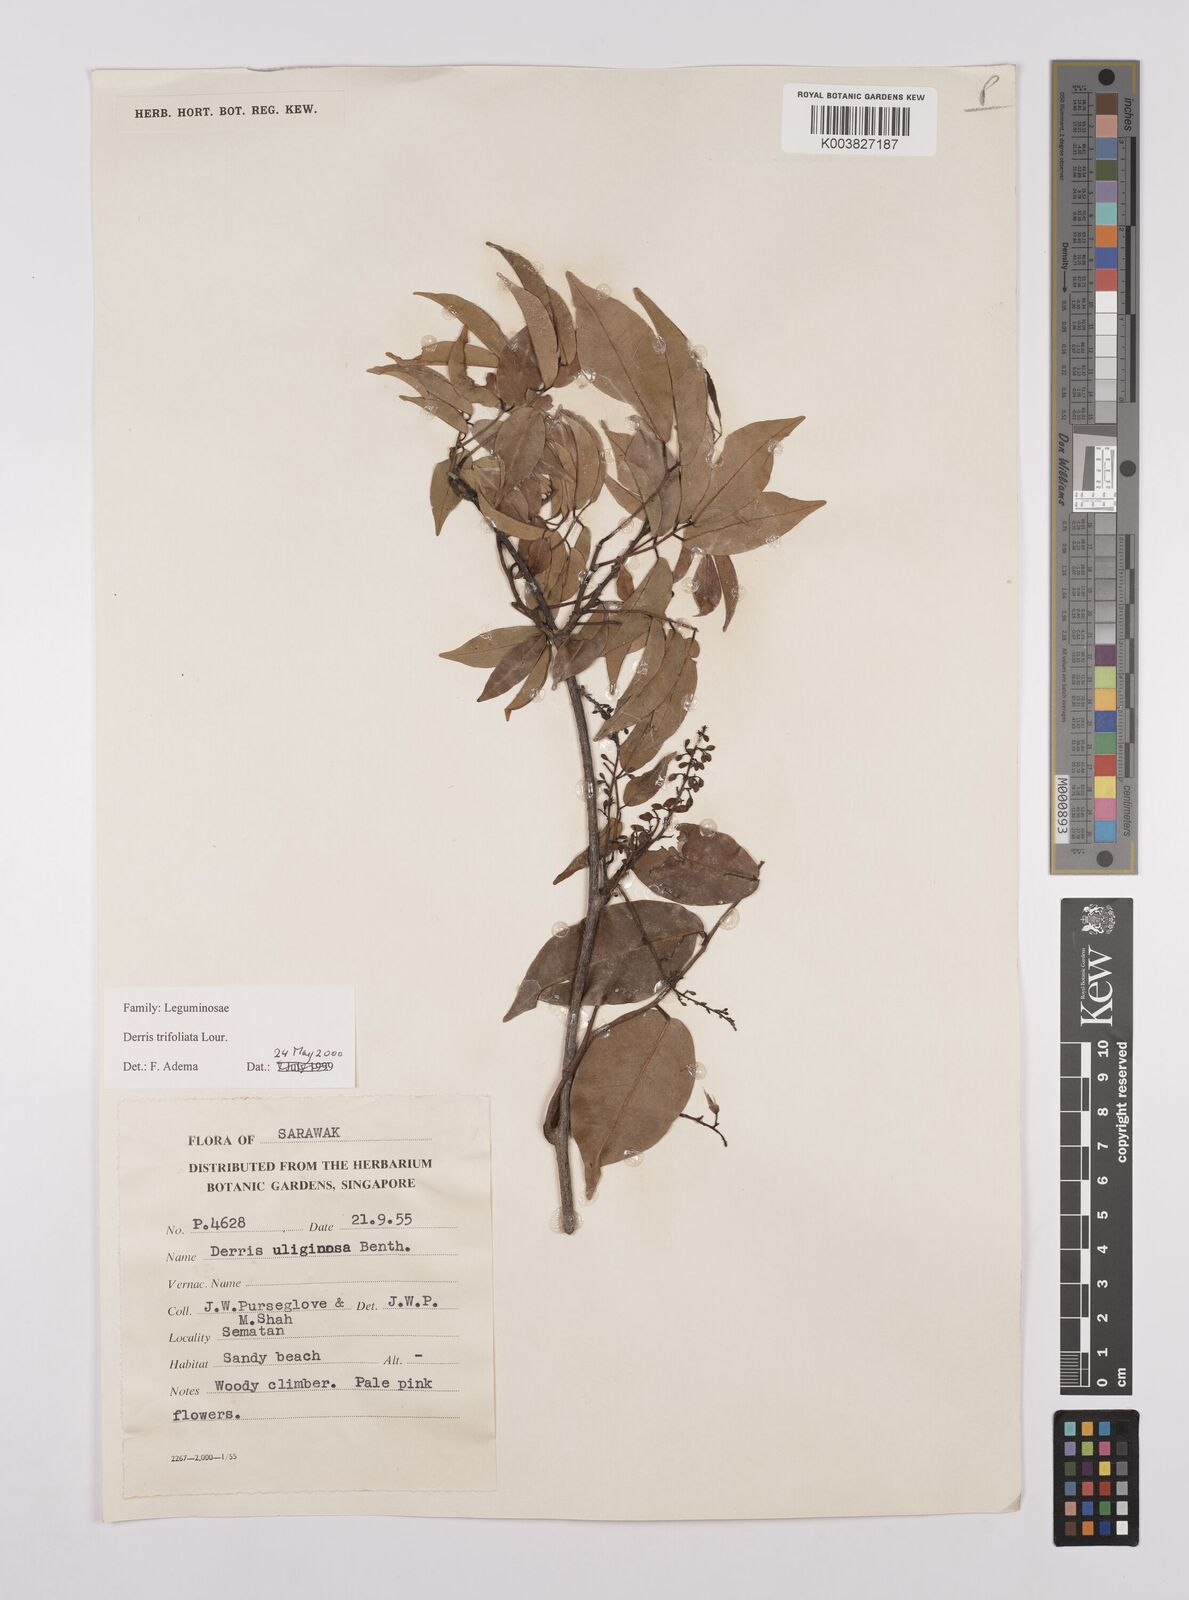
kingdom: Plantae
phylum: Tracheophyta
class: Magnoliopsida
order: Fabales
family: Fabaceae
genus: Derris
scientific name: Derris trifoliata
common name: Three-leaf derris
